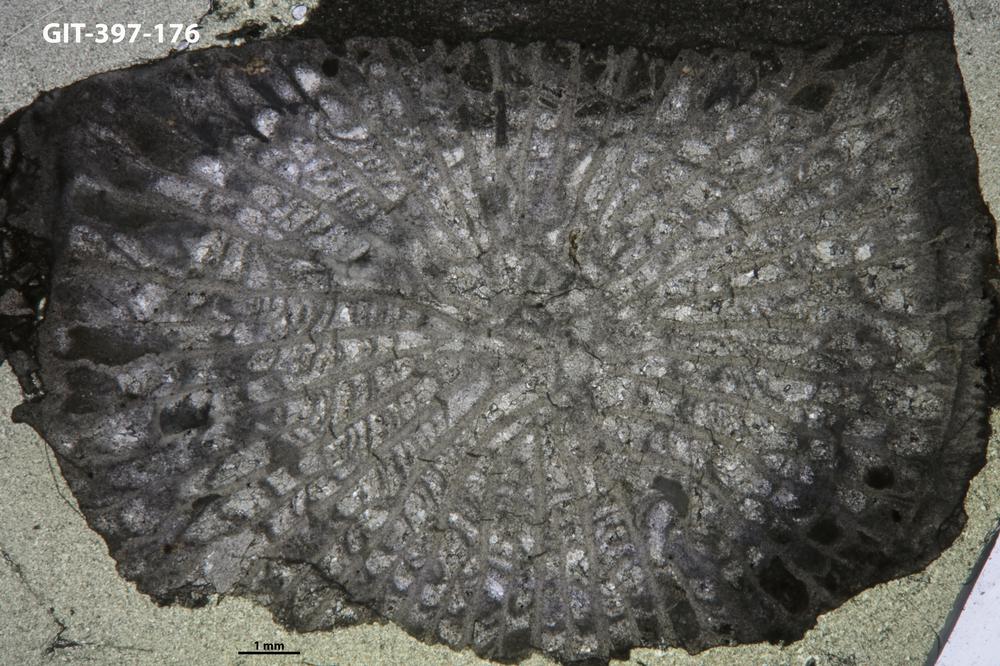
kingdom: Animalia
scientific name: Animalia
